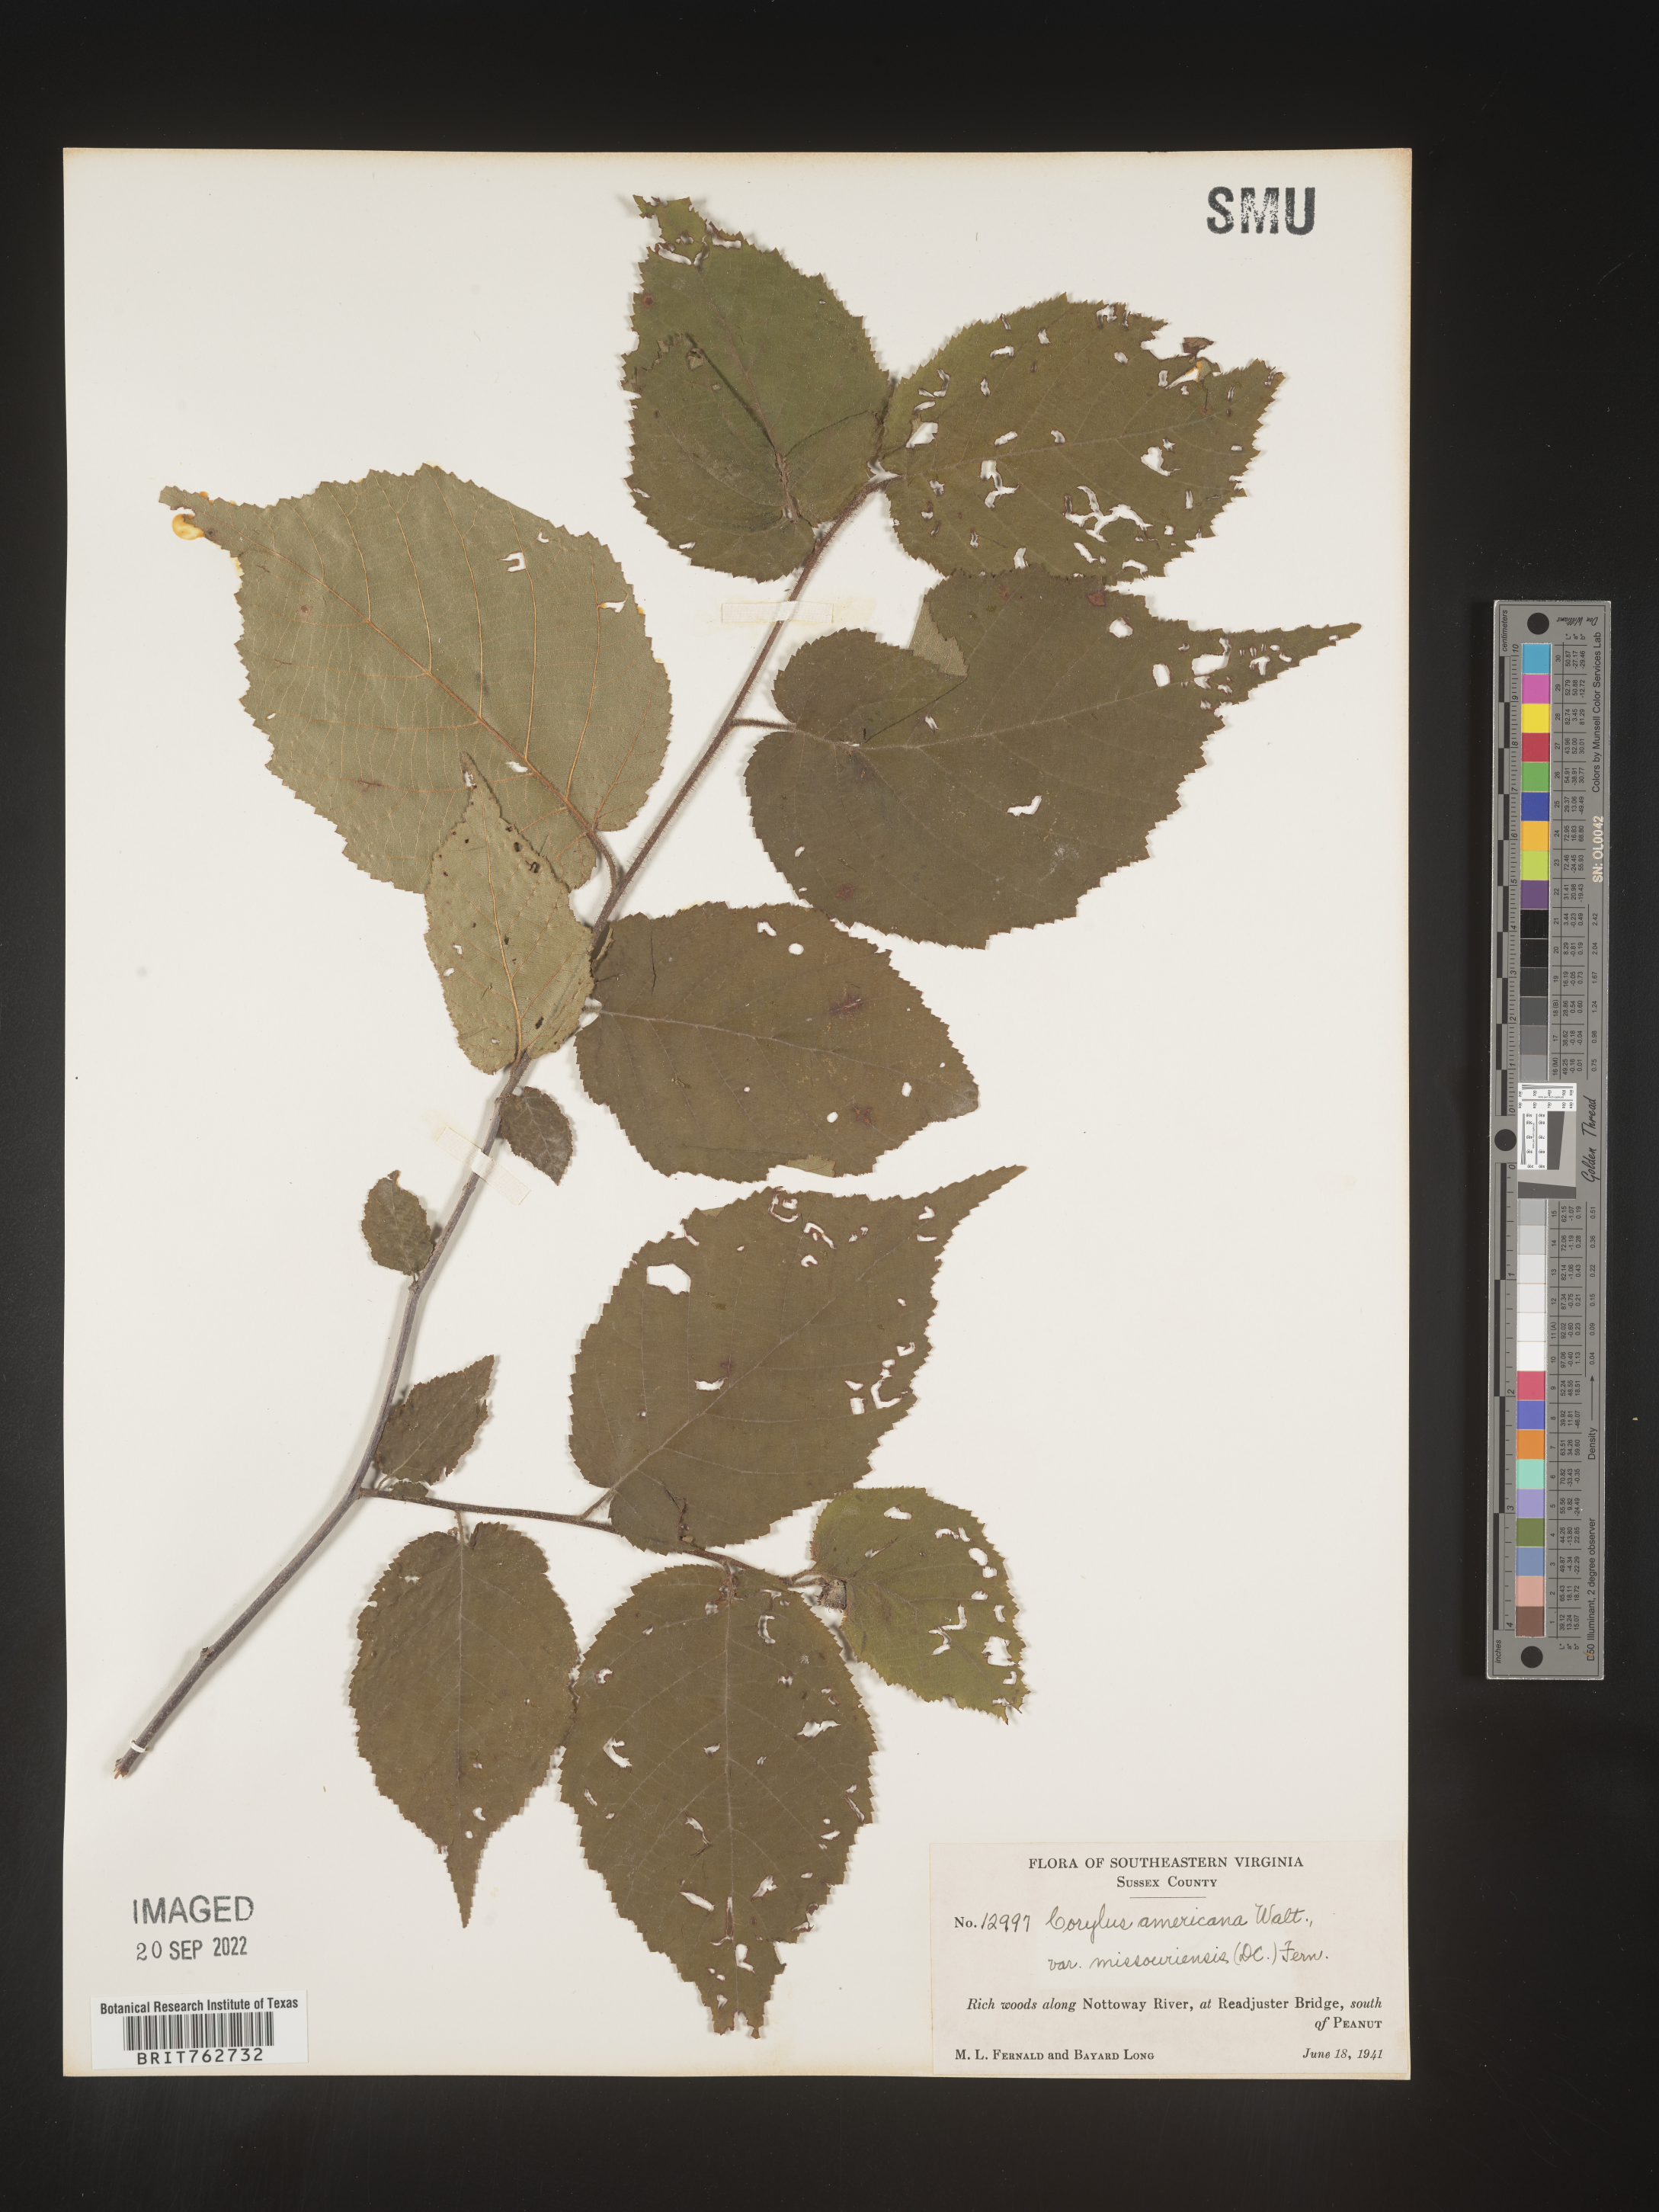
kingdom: Plantae
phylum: Tracheophyta
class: Magnoliopsida
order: Fagales
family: Betulaceae
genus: Corylus
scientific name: Corylus americana
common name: American hazel
